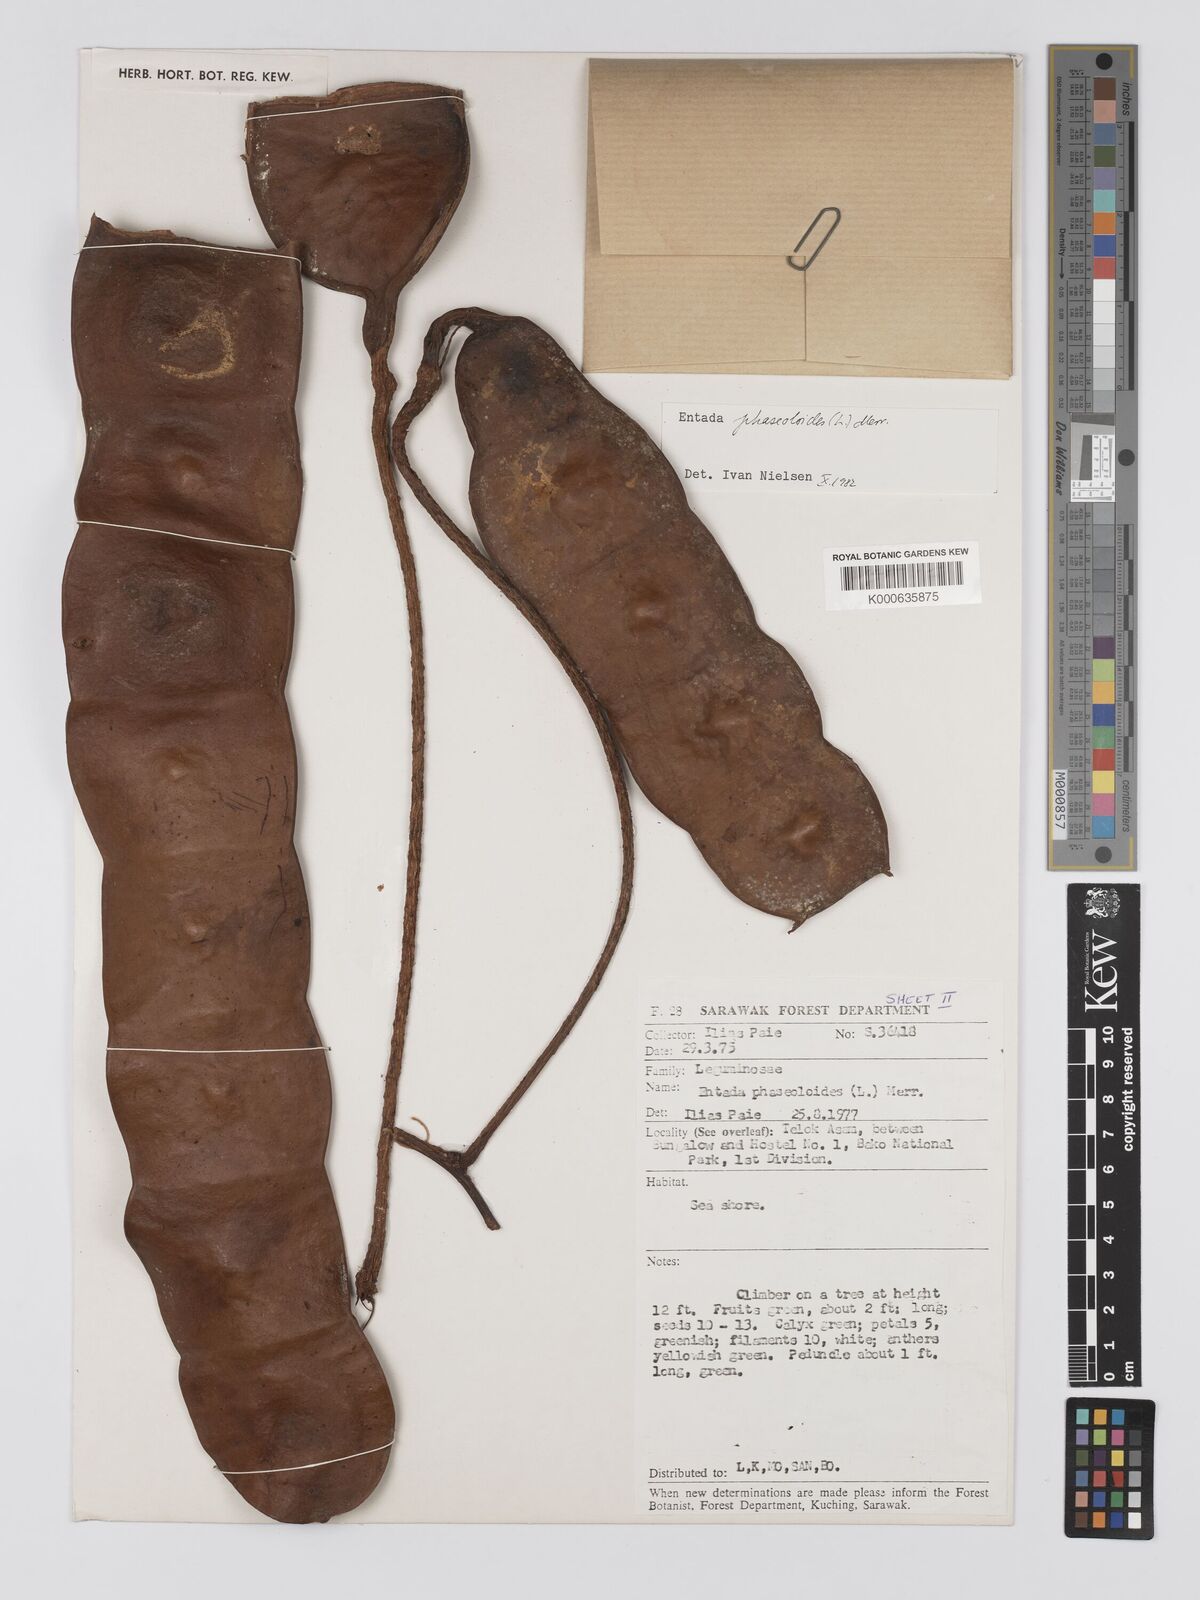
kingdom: Plantae
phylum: Tracheophyta
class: Magnoliopsida
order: Fabales
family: Fabaceae
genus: Entada
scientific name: Entada phaseoloides
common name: Matchbox-bean
